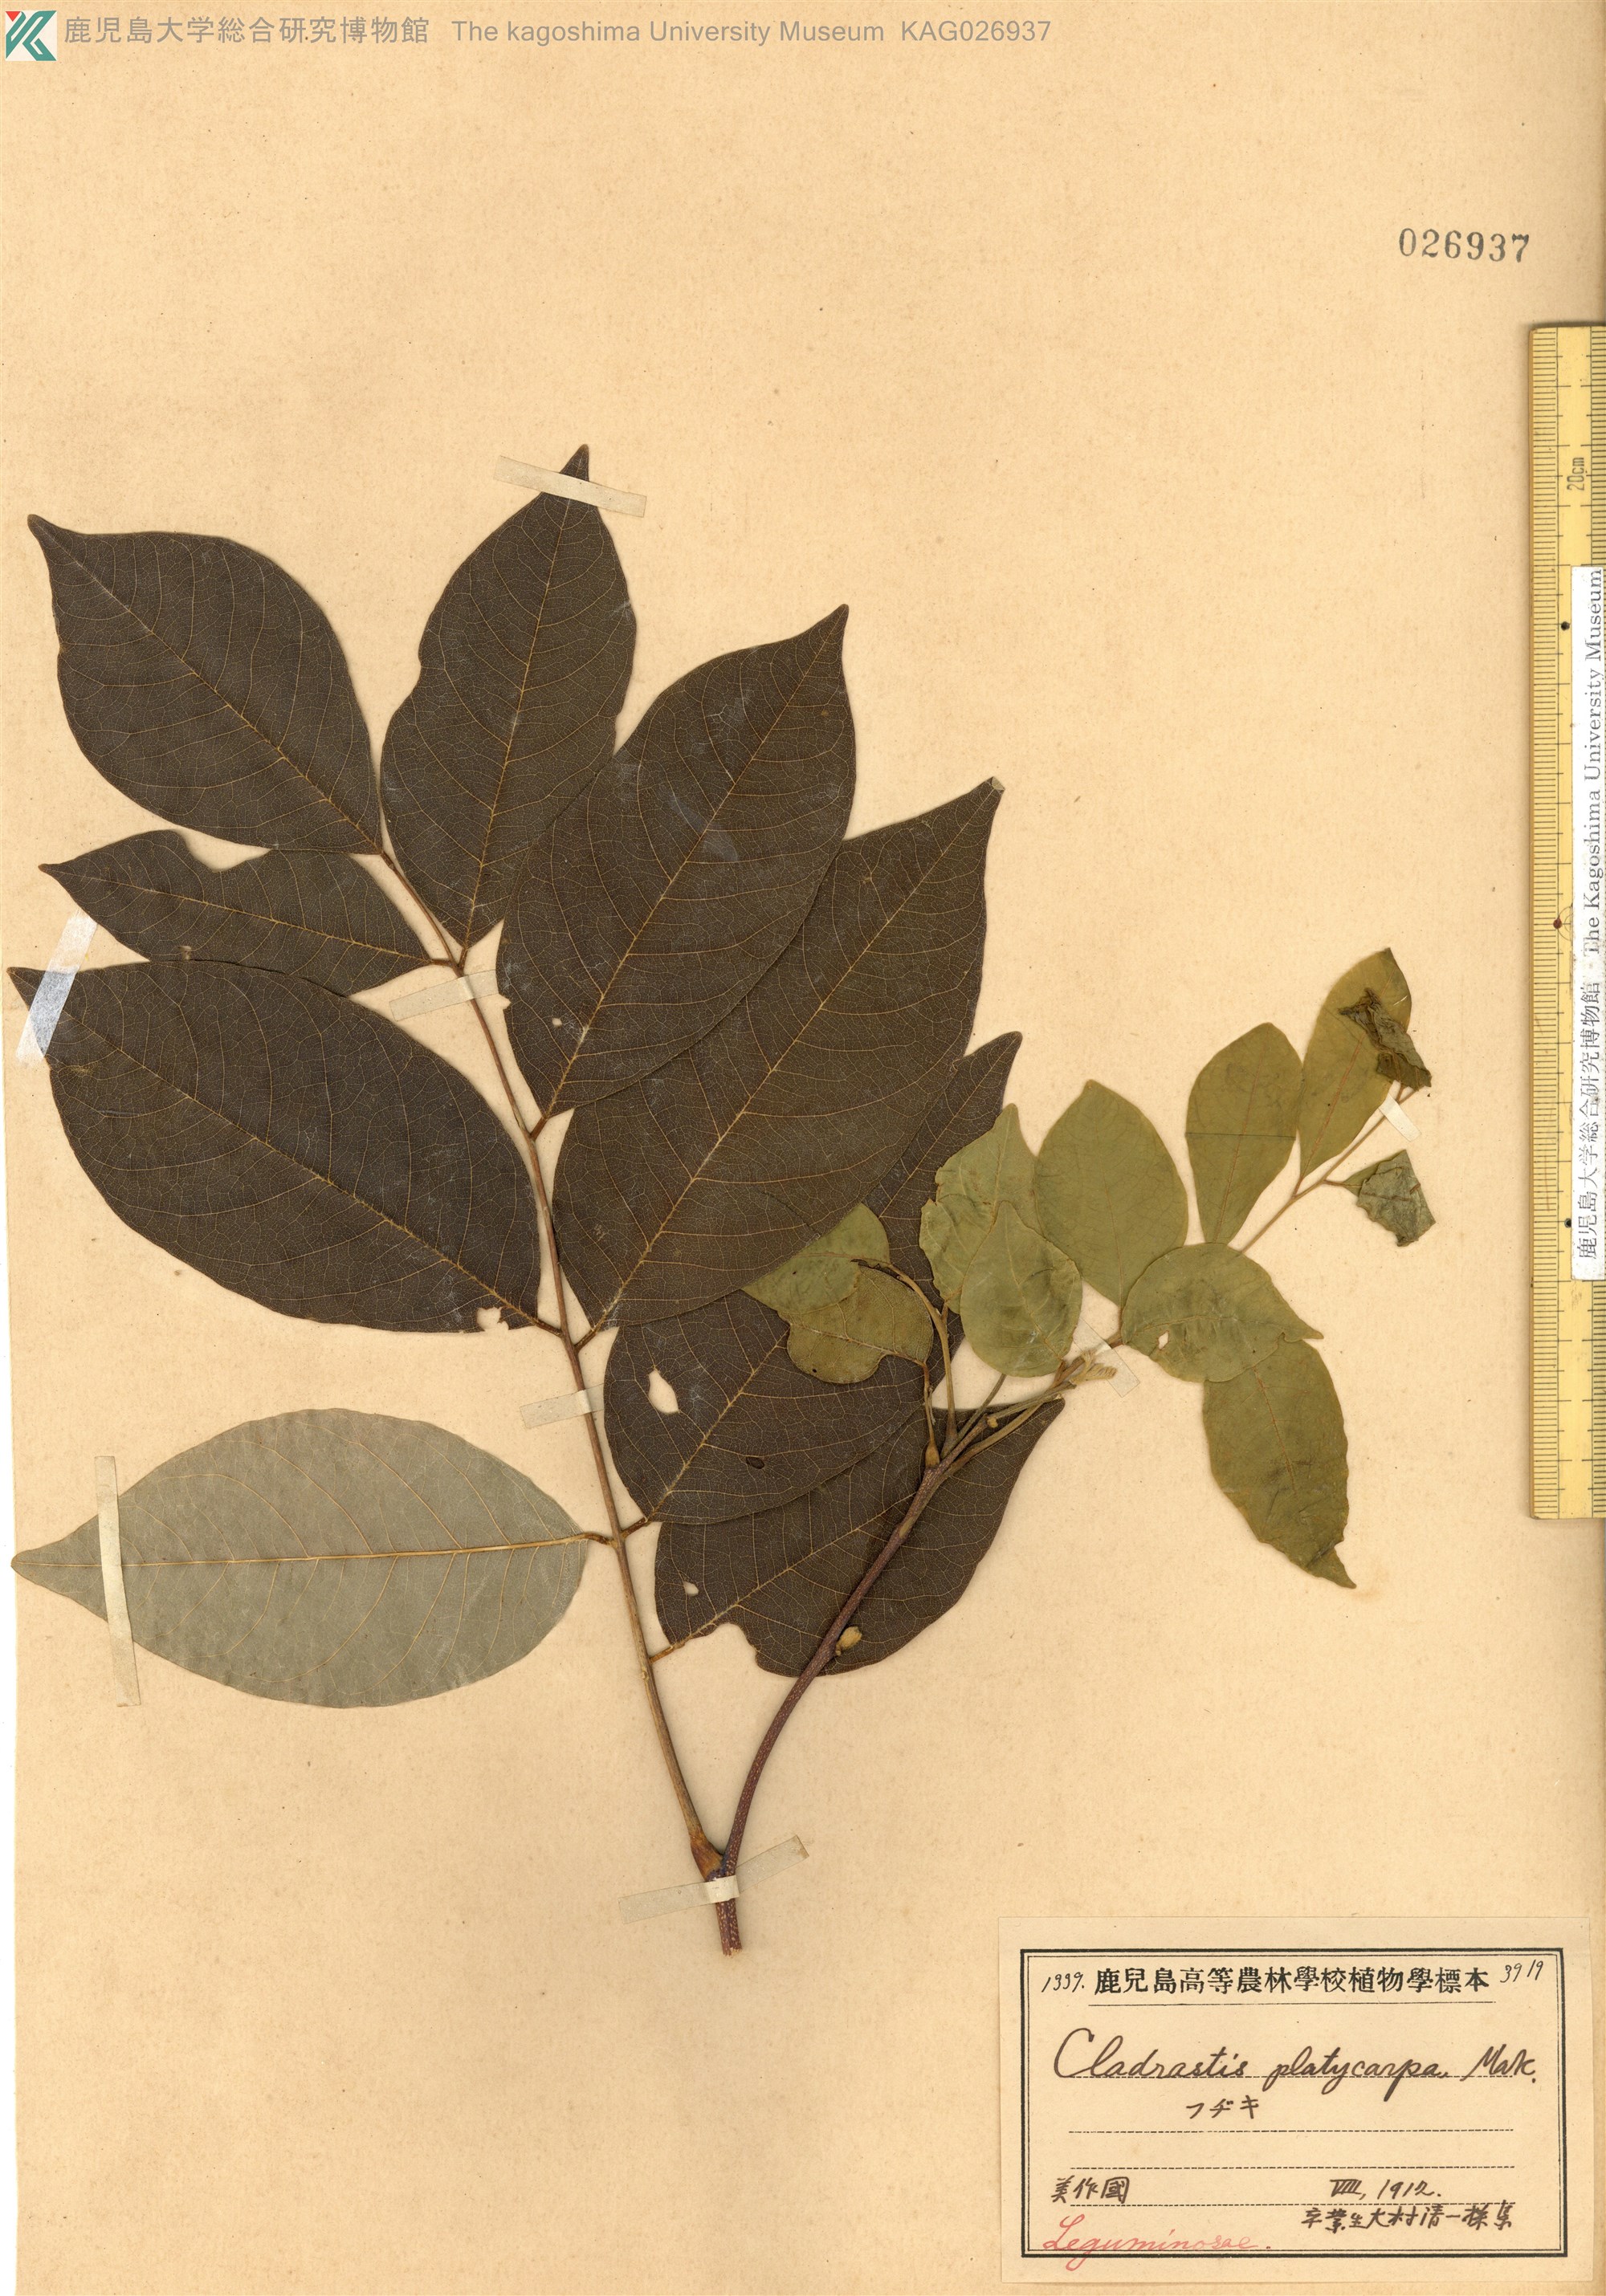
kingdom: Plantae
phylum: Tracheophyta
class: Magnoliopsida
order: Fabales
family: Fabaceae
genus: Platyosprion
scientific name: Platyosprion platycarpum
